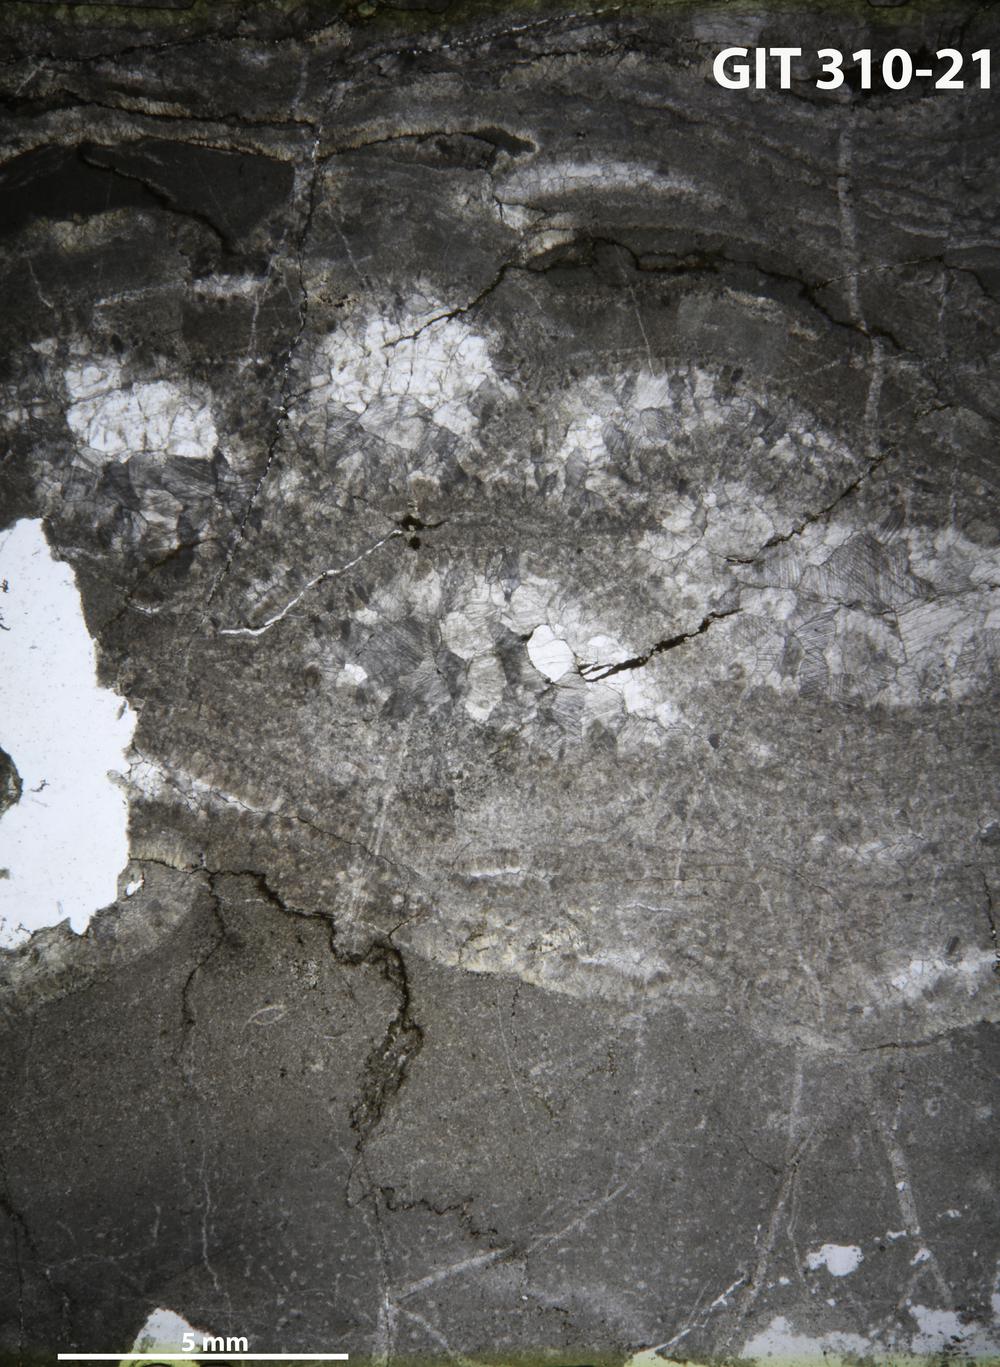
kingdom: Animalia
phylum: Porifera
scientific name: Porifera
